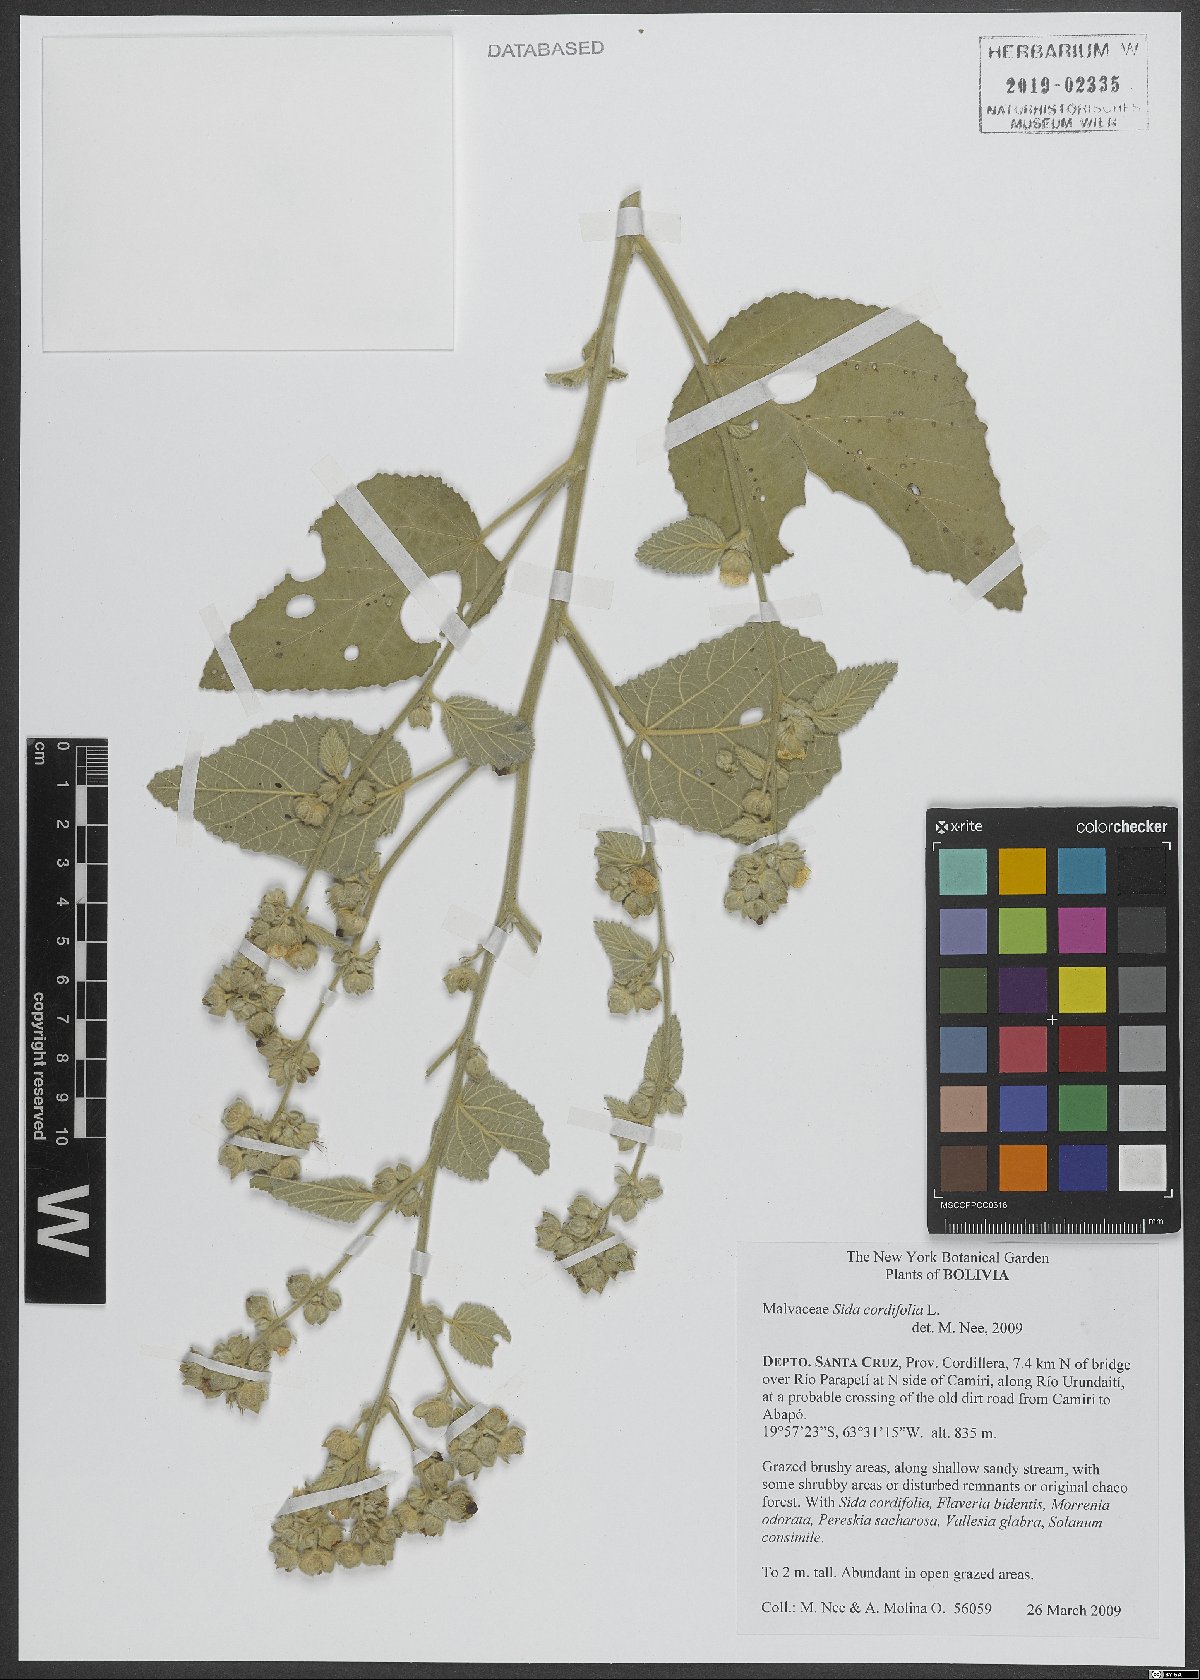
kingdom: Plantae
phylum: Tracheophyta
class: Magnoliopsida
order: Malvales
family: Malvaceae
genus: Sida
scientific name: Sida cordifolia
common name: Ilima
